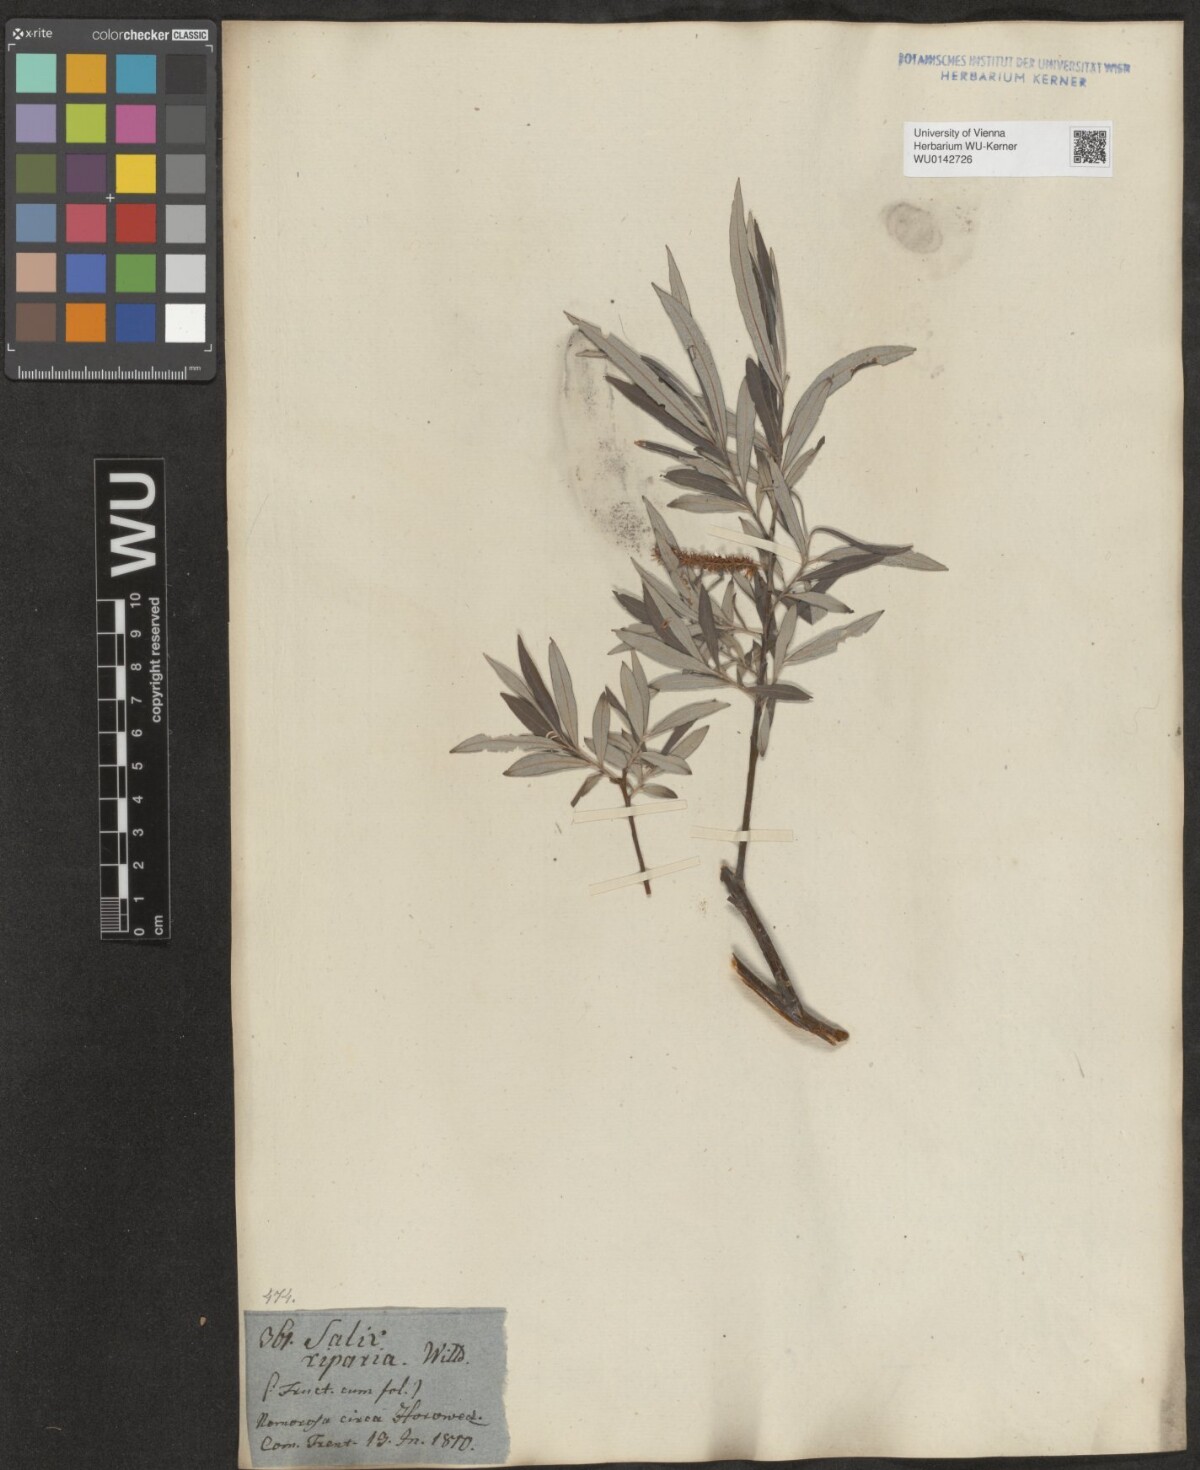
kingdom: Plantae
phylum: Tracheophyta
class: Magnoliopsida
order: Malpighiales
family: Salicaceae
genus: Salix
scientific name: Salix eleagnos
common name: Elaeagnus willow
